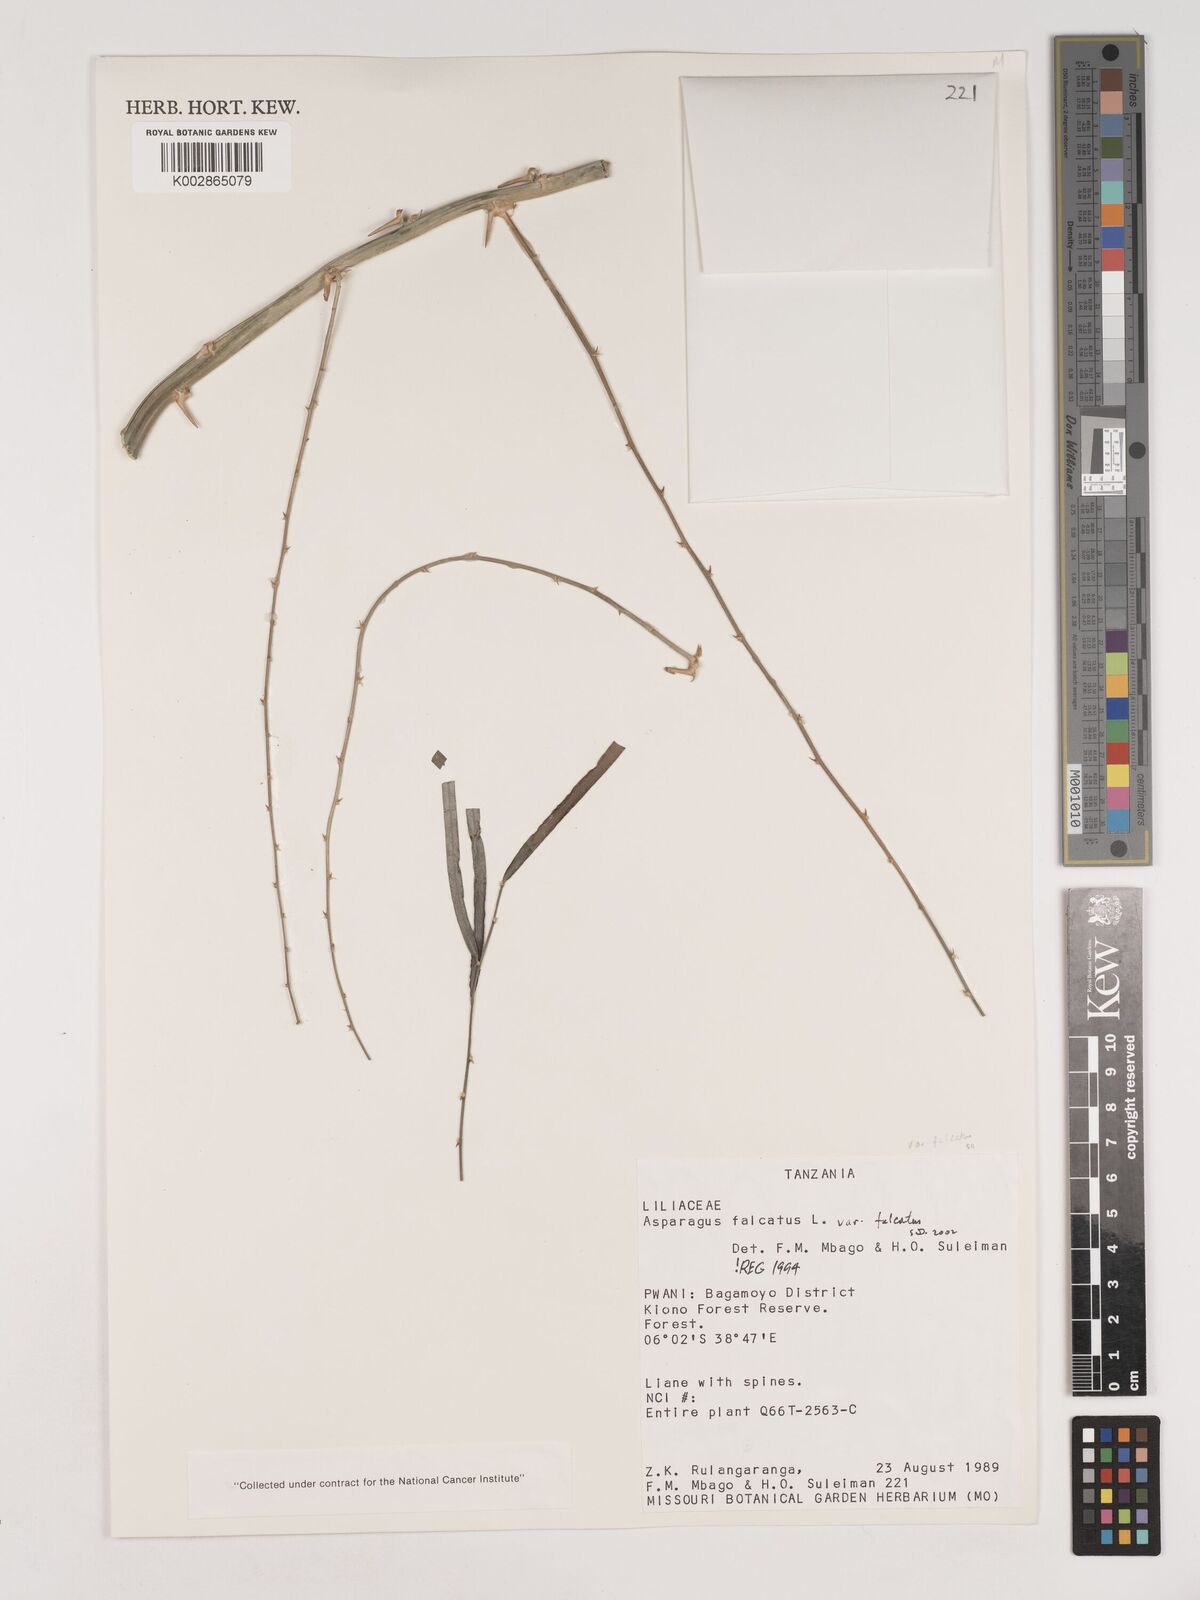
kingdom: Plantae
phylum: Tracheophyta
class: Liliopsida
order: Asparagales
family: Asparagaceae
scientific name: Asparagaceae
